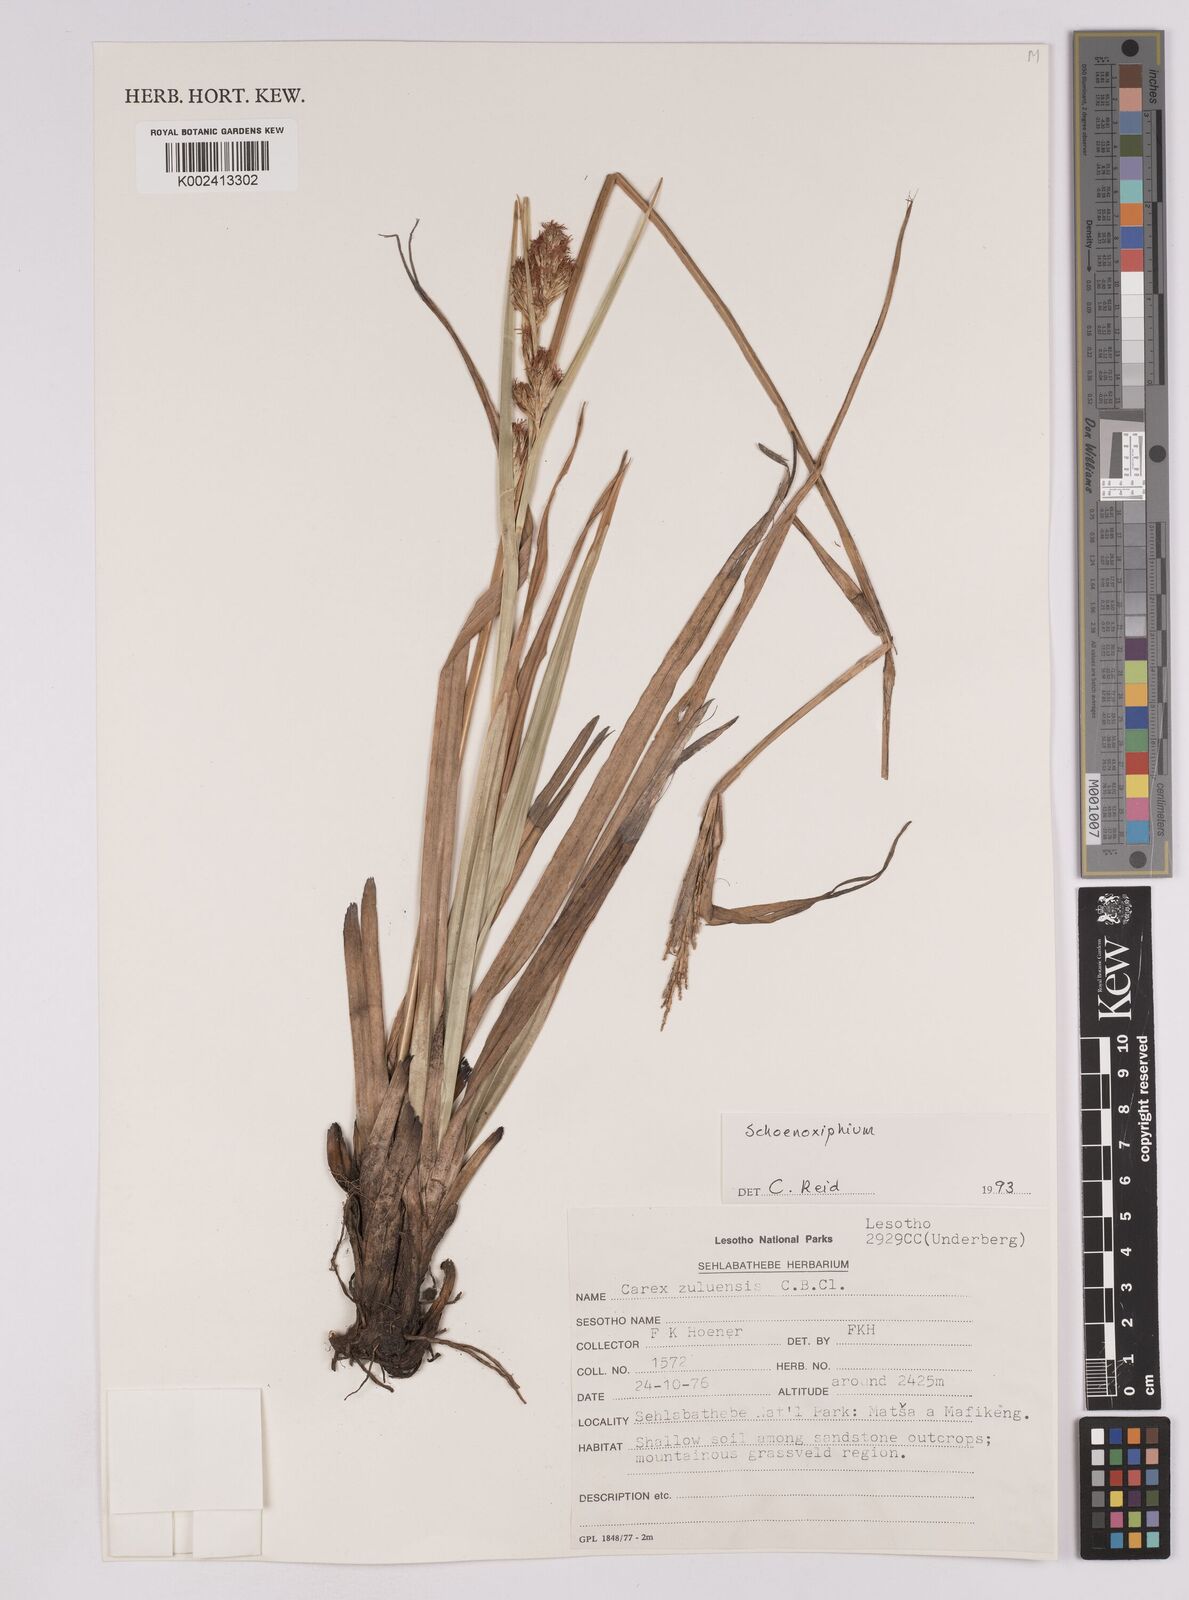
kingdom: Plantae
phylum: Tracheophyta
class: Liliopsida
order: Poales
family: Cyperaceae
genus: Carex
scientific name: Carex
